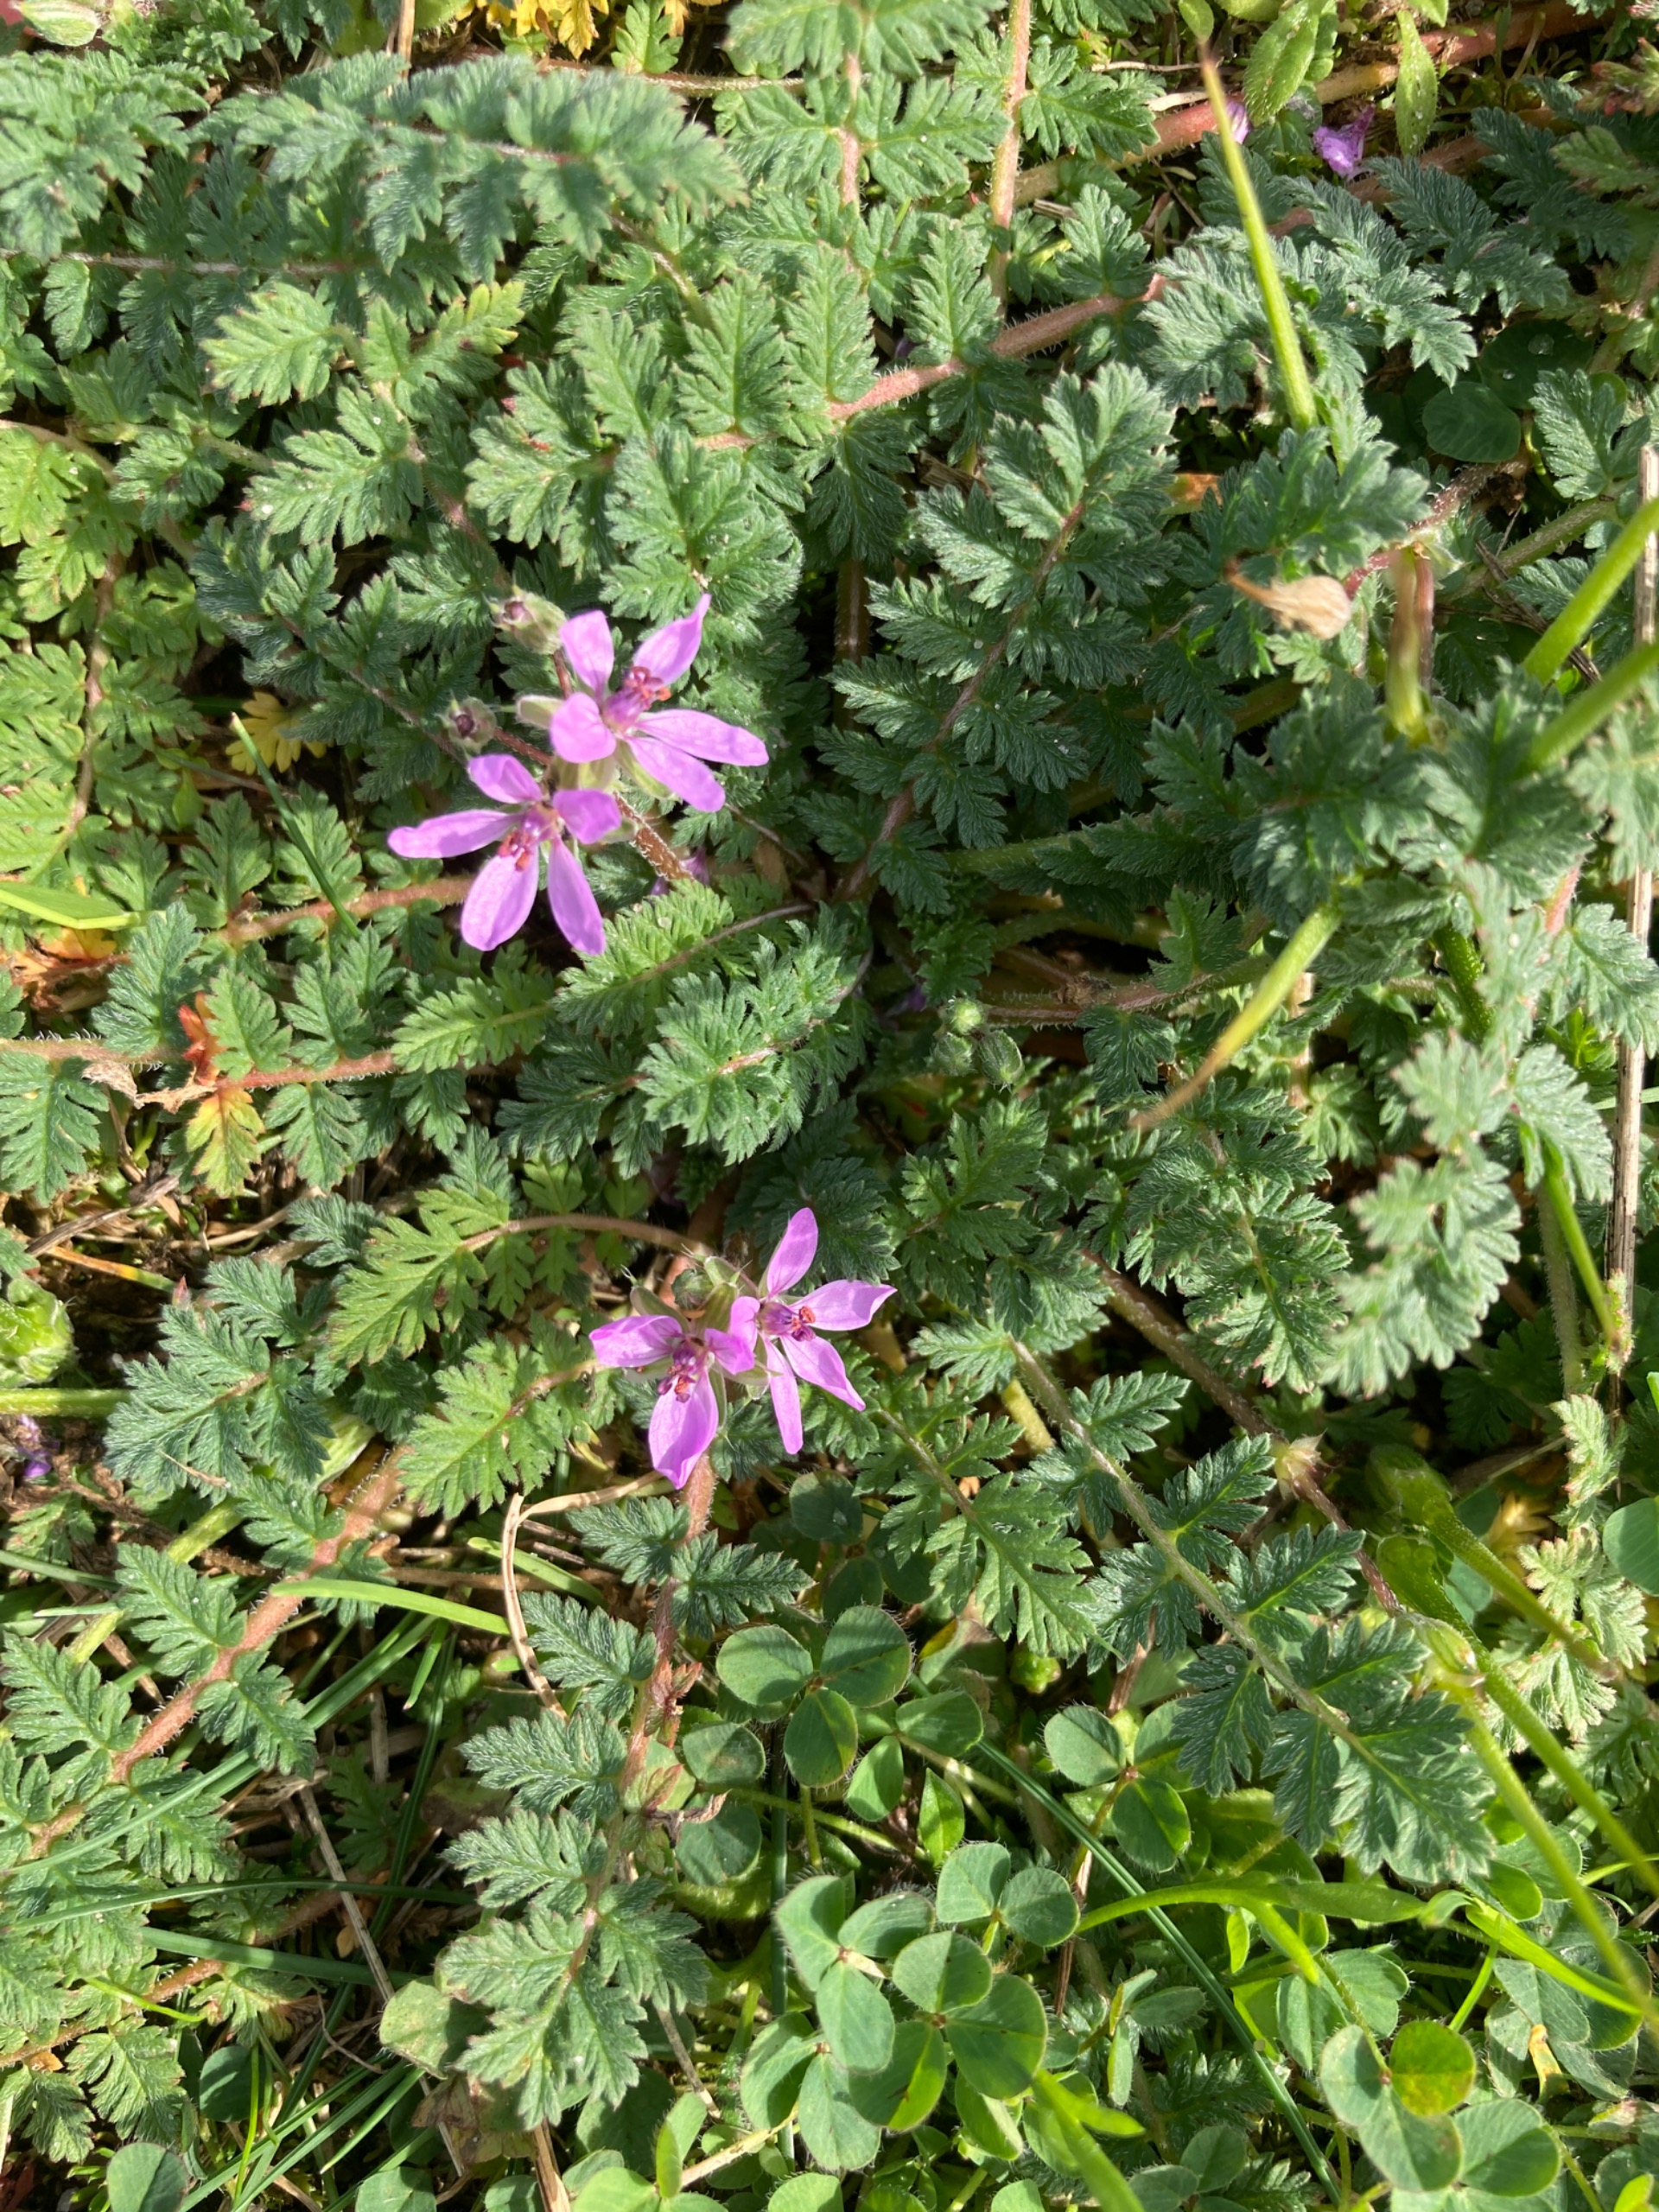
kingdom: Plantae
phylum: Tracheophyta
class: Magnoliopsida
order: Geraniales
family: Geraniaceae
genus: Erodium
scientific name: Erodium cicutarium
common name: Hejrenæb
